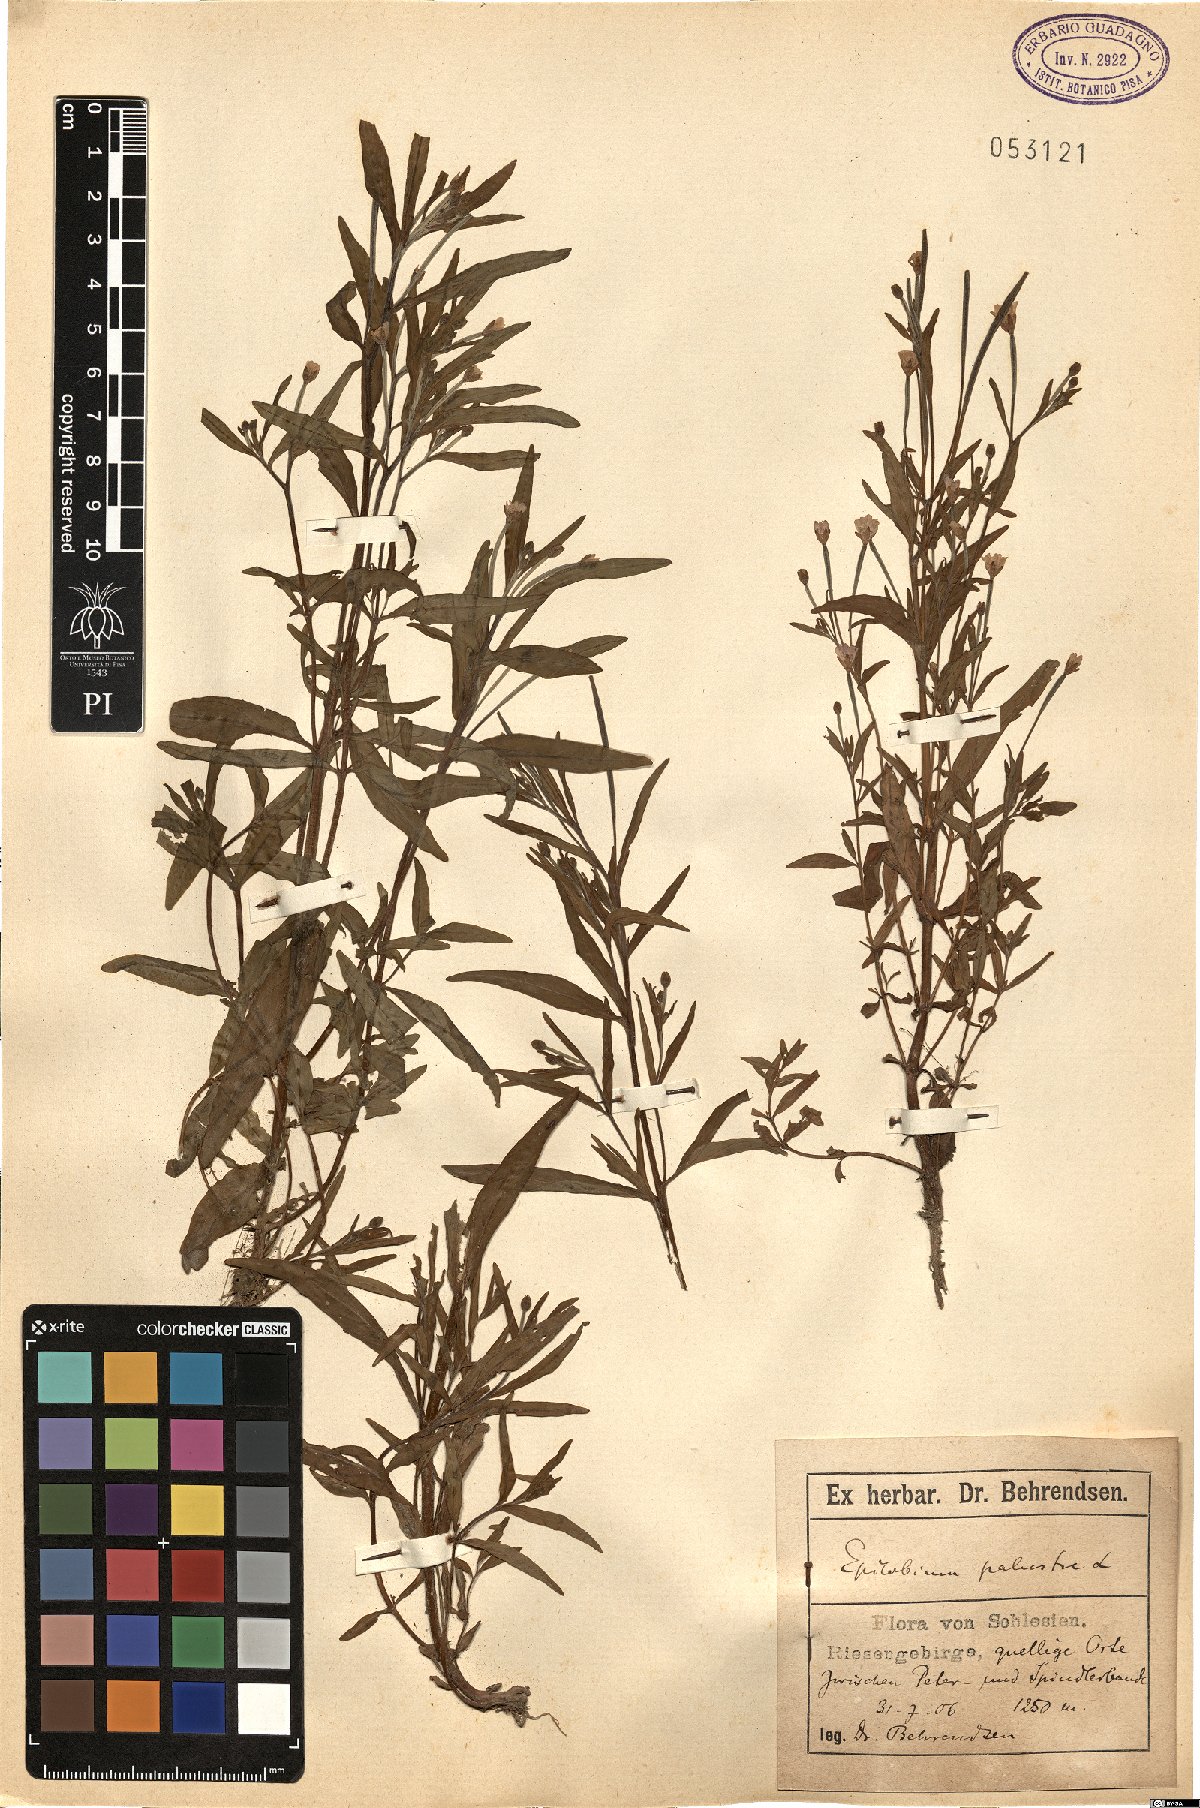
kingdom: Plantae
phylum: Tracheophyta
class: Magnoliopsida
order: Myrtales
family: Onagraceae
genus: Epilobium
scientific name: Epilobium palustre
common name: Marsh willowherb
